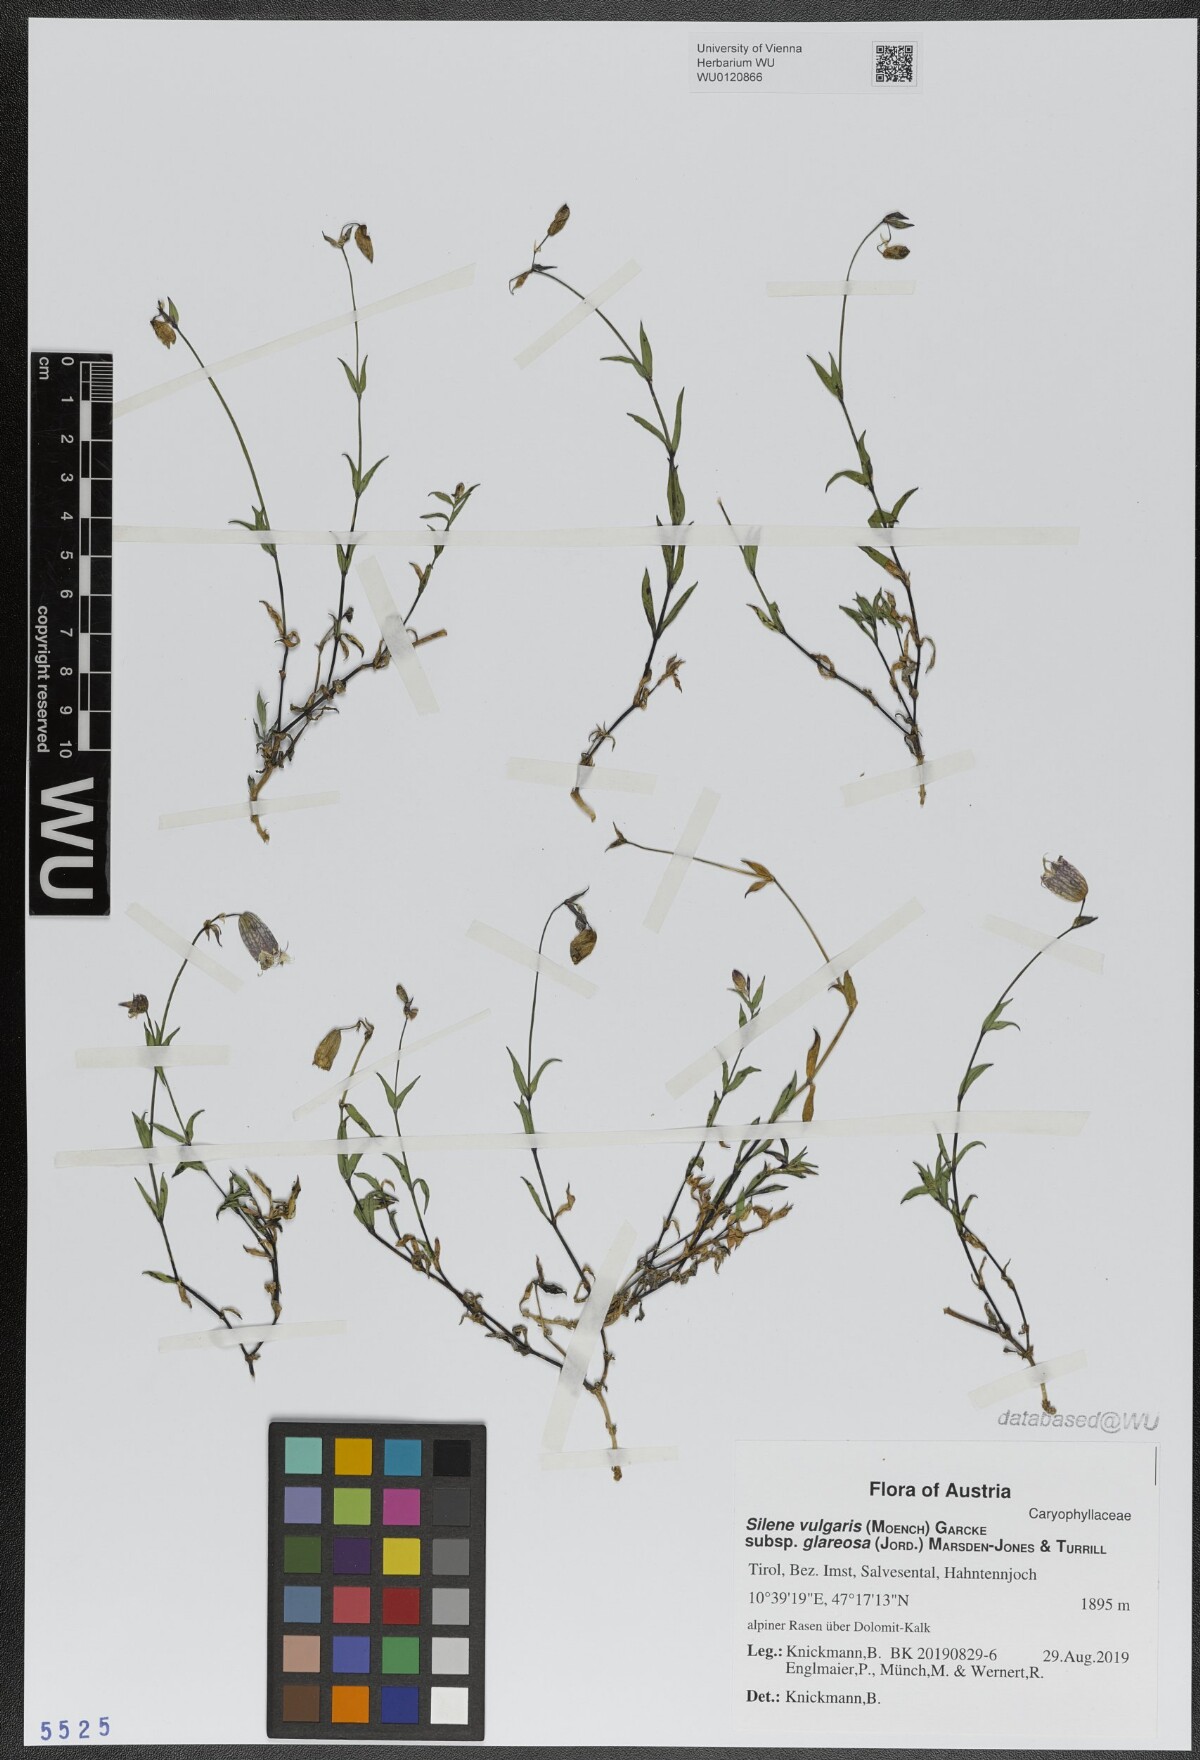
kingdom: Plantae
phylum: Tracheophyta
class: Magnoliopsida
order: Caryophyllales
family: Caryophyllaceae
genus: Silene
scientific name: Silene glareosa
